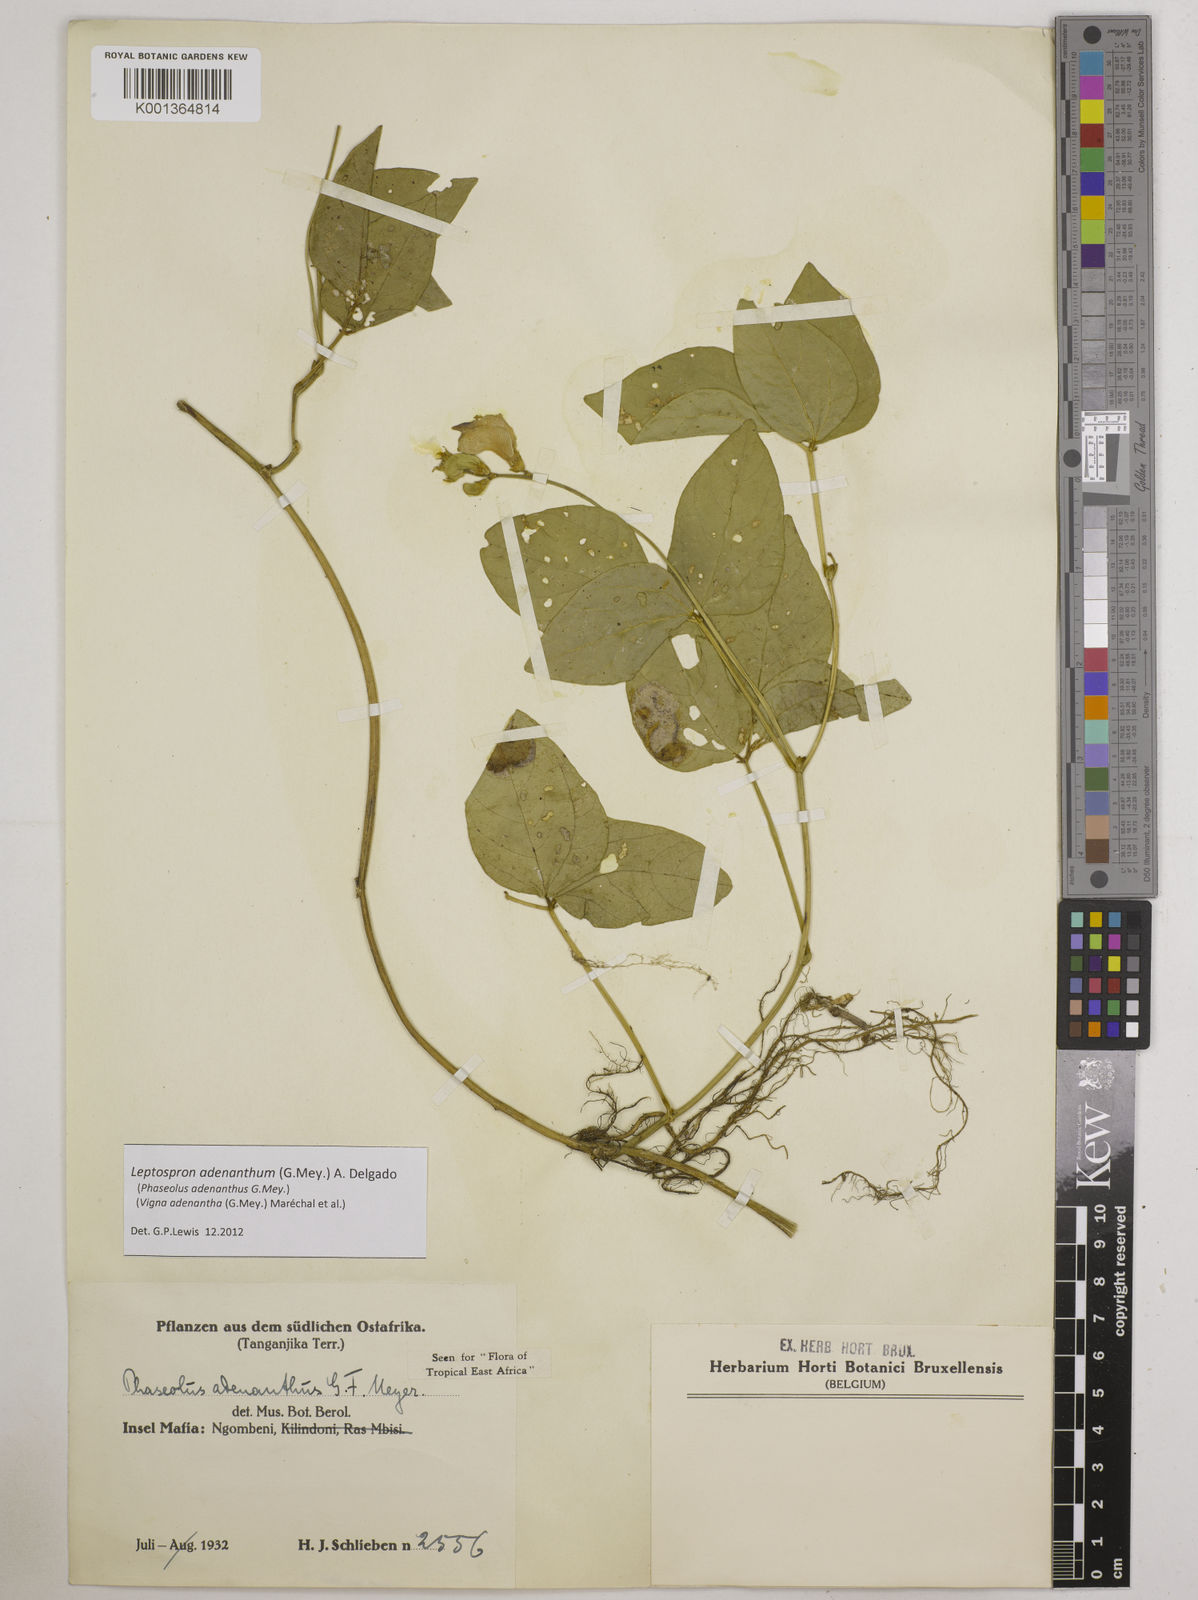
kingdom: Plantae
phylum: Tracheophyta
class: Magnoliopsida
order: Fabales
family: Fabaceae
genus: Leptospron
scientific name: Leptospron adenanthum
